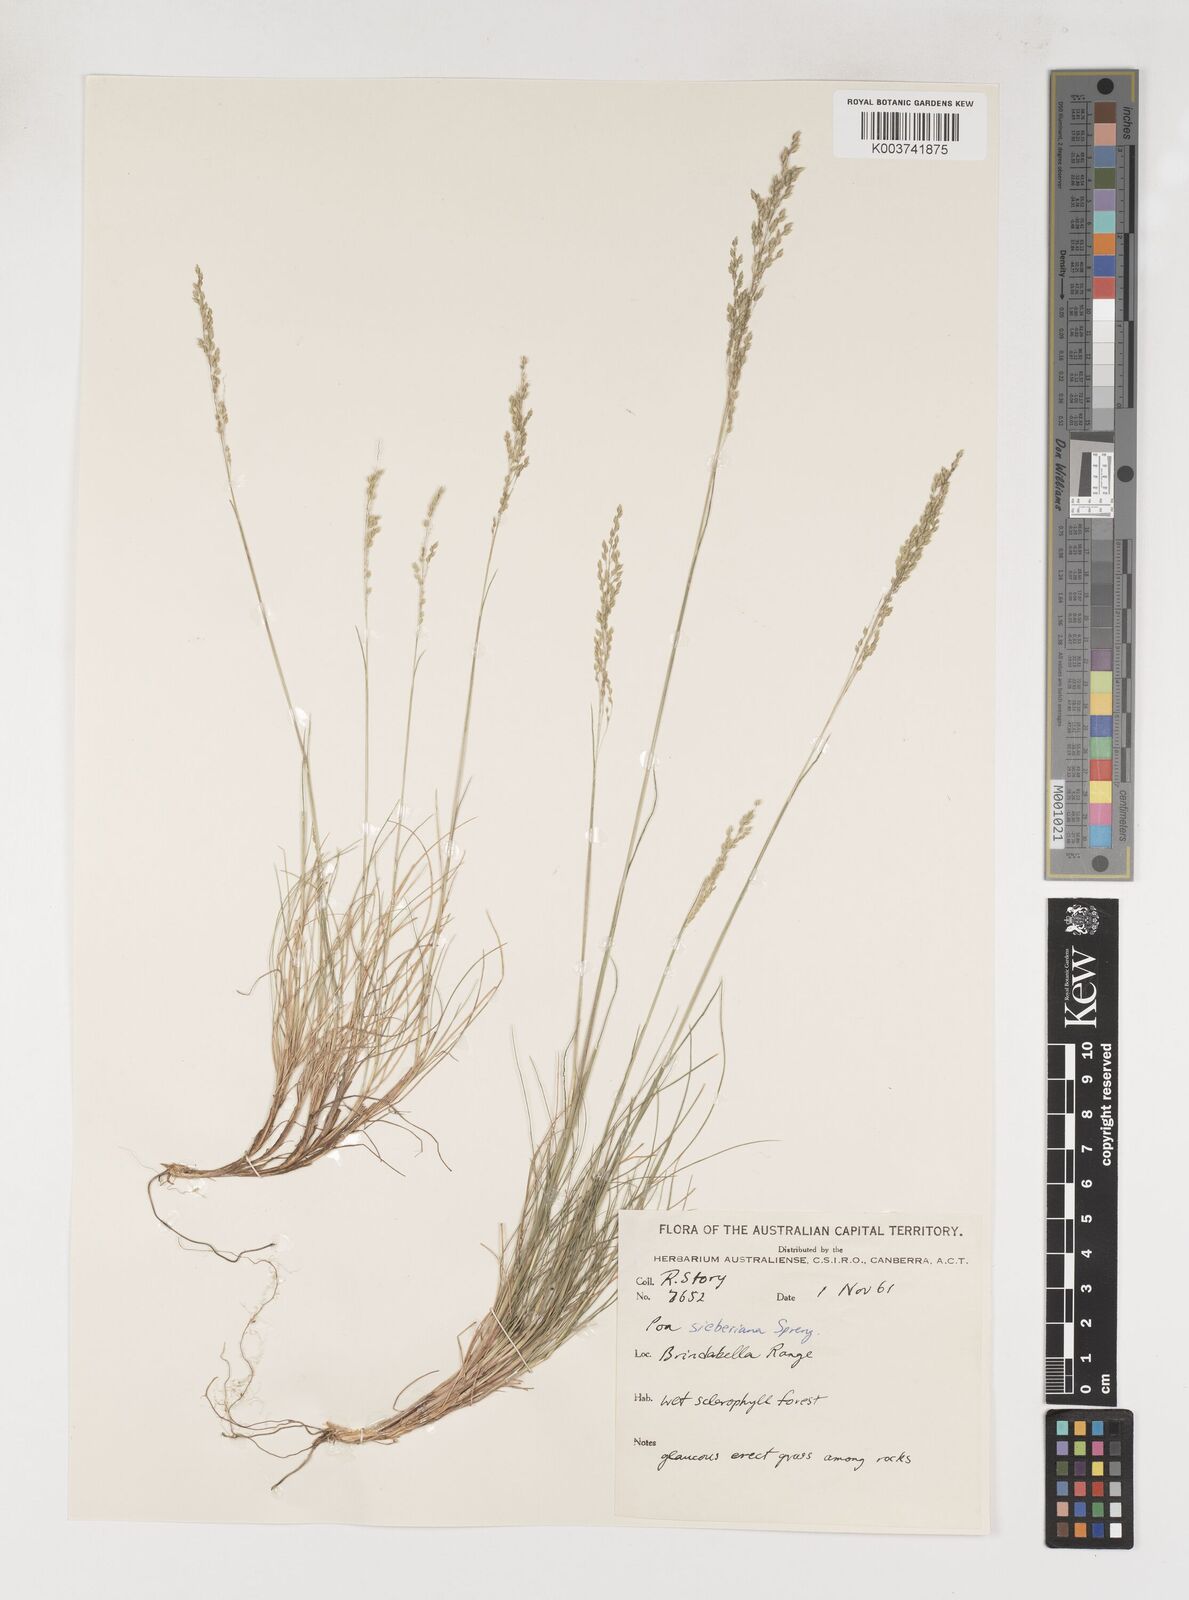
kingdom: Plantae
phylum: Tracheophyta
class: Liliopsida
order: Poales
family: Poaceae
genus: Poa
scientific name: Poa sieberiana
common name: Tussock poa
